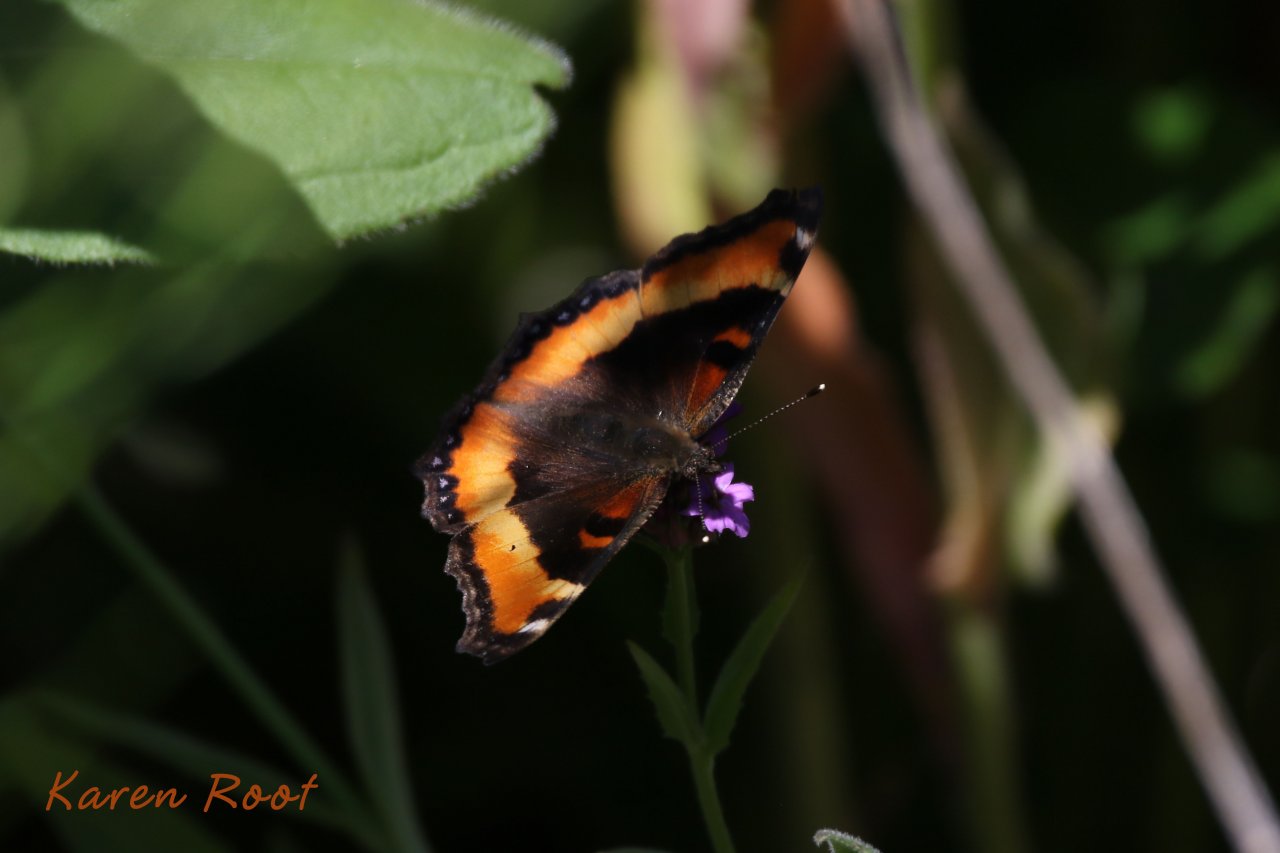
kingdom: Animalia
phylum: Arthropoda
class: Insecta
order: Lepidoptera
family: Nymphalidae
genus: Aglais
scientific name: Aglais milberti
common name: Milbert's Tortoiseshell
